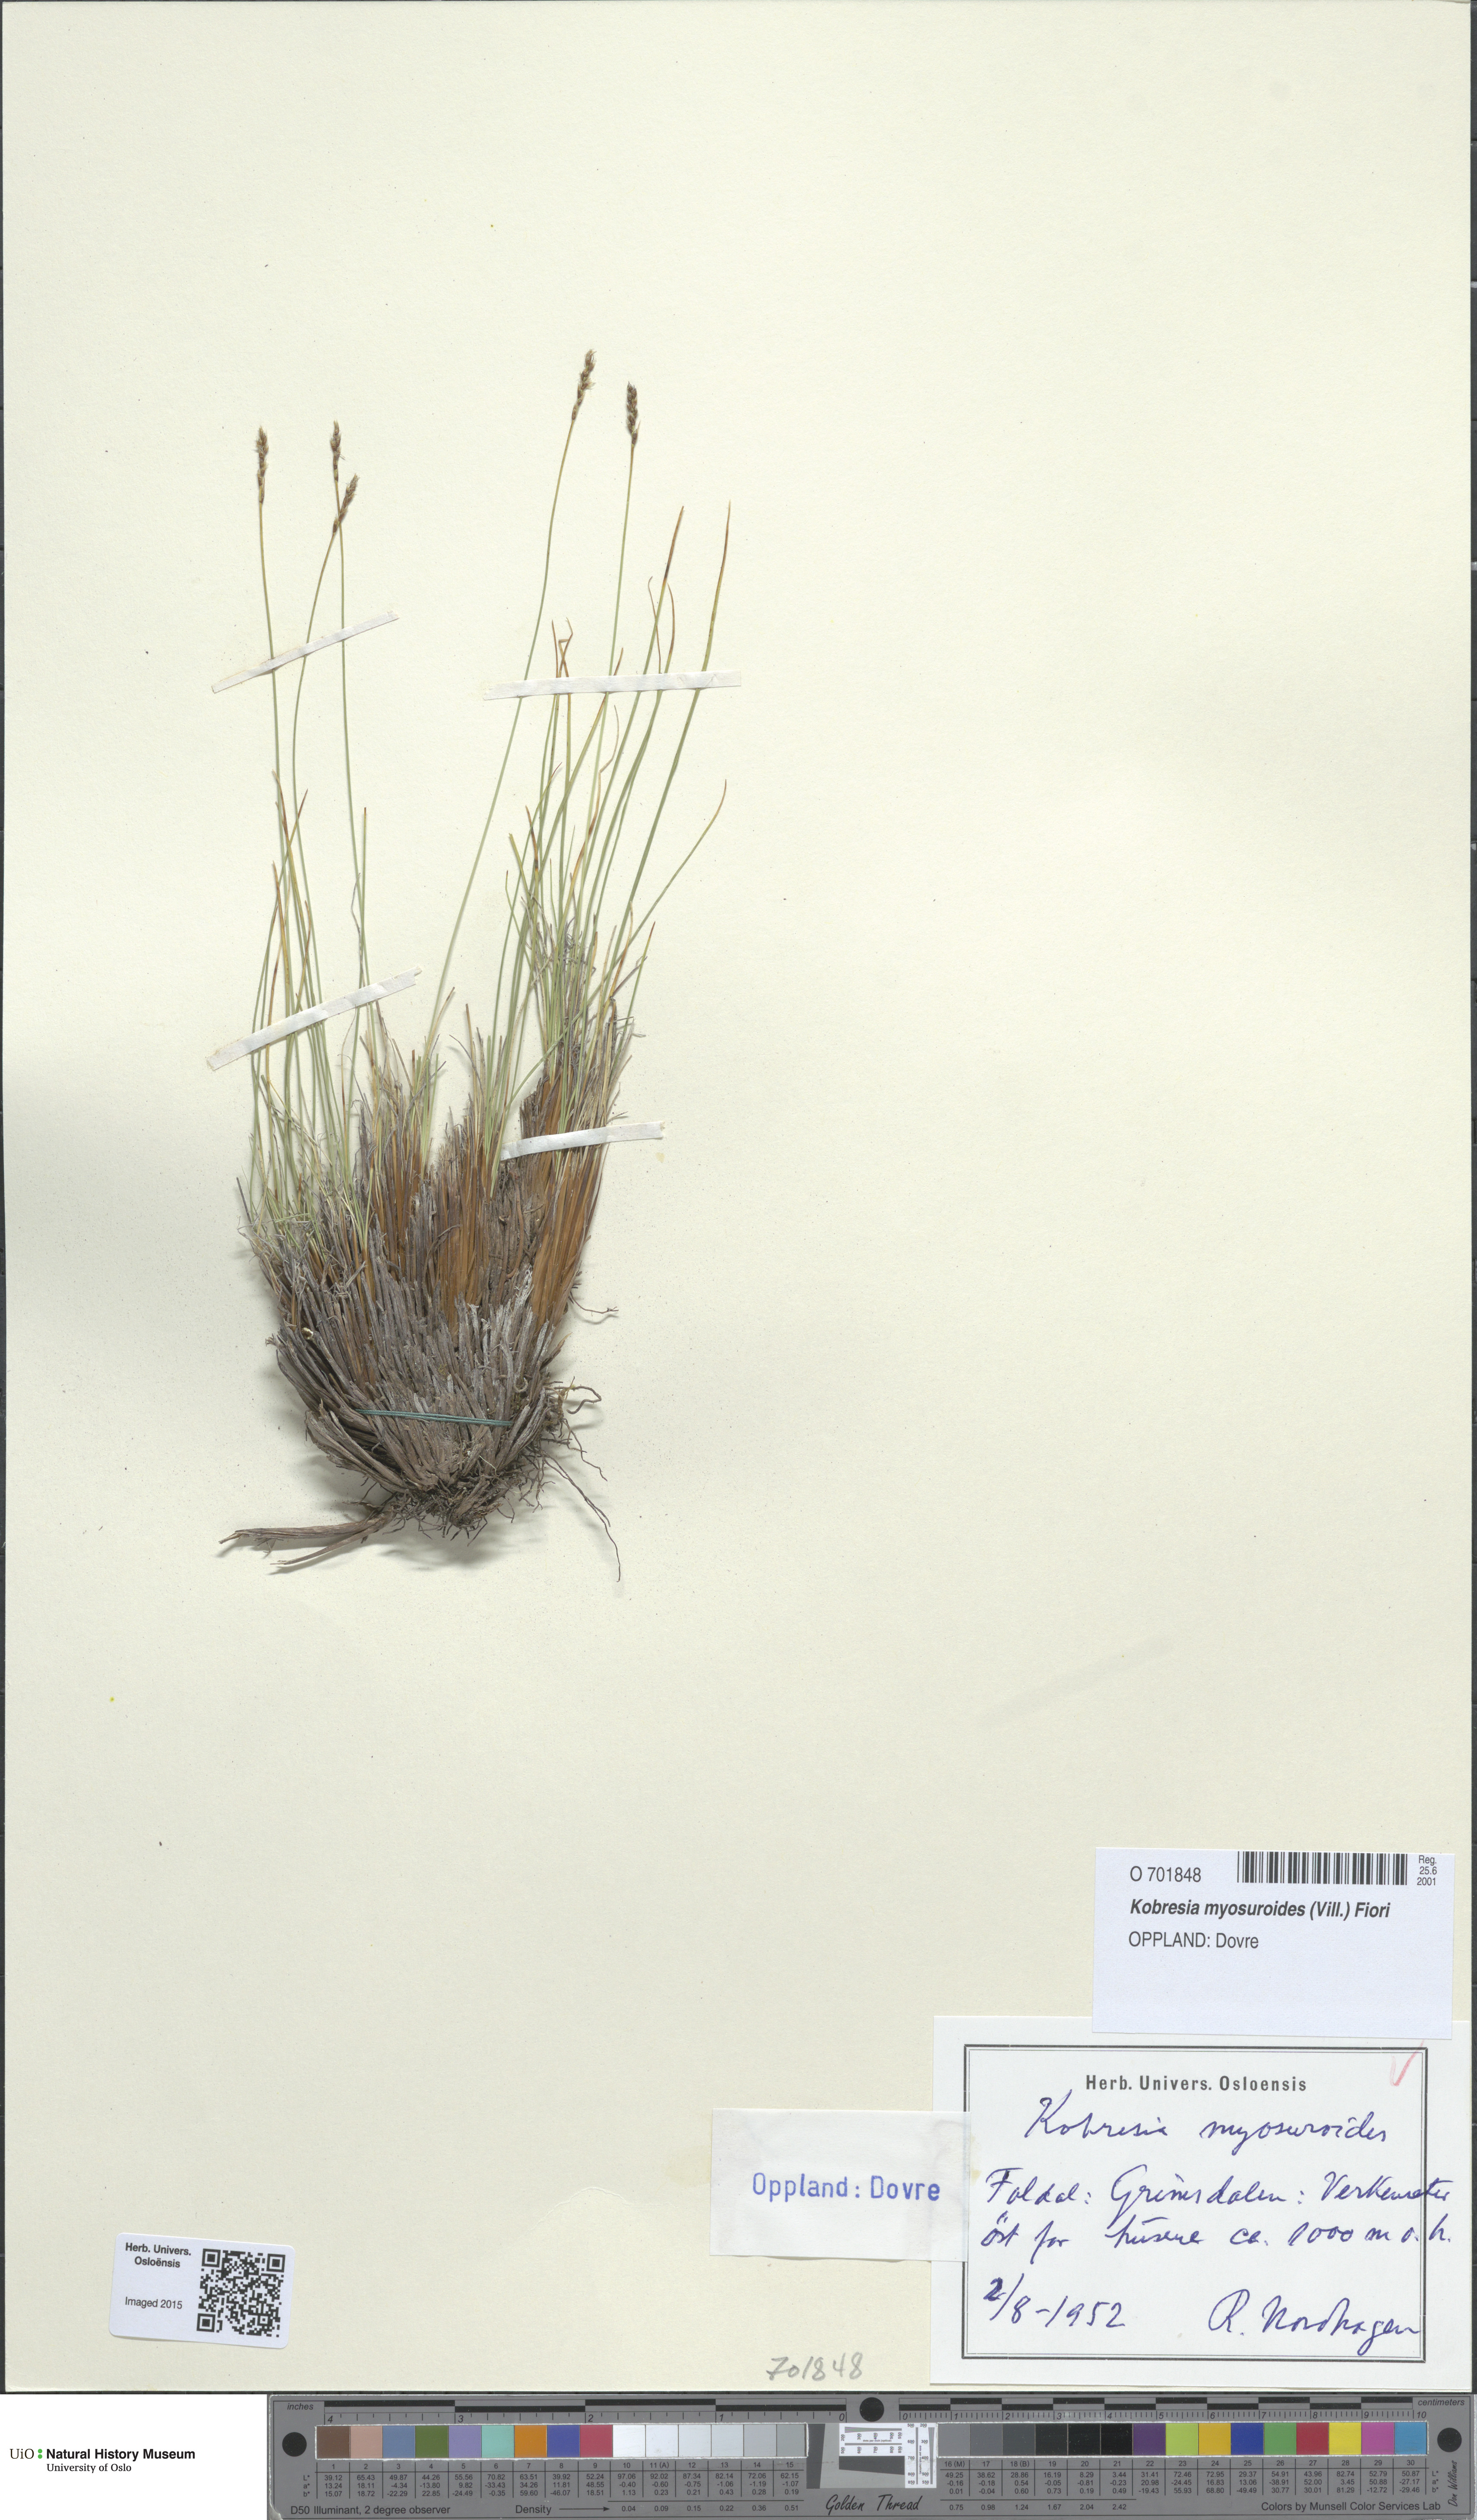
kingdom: Plantae
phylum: Tracheophyta
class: Liliopsida
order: Poales
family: Cyperaceae
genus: Carex
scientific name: Carex myosuroides
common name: Bellard's bog sedge
